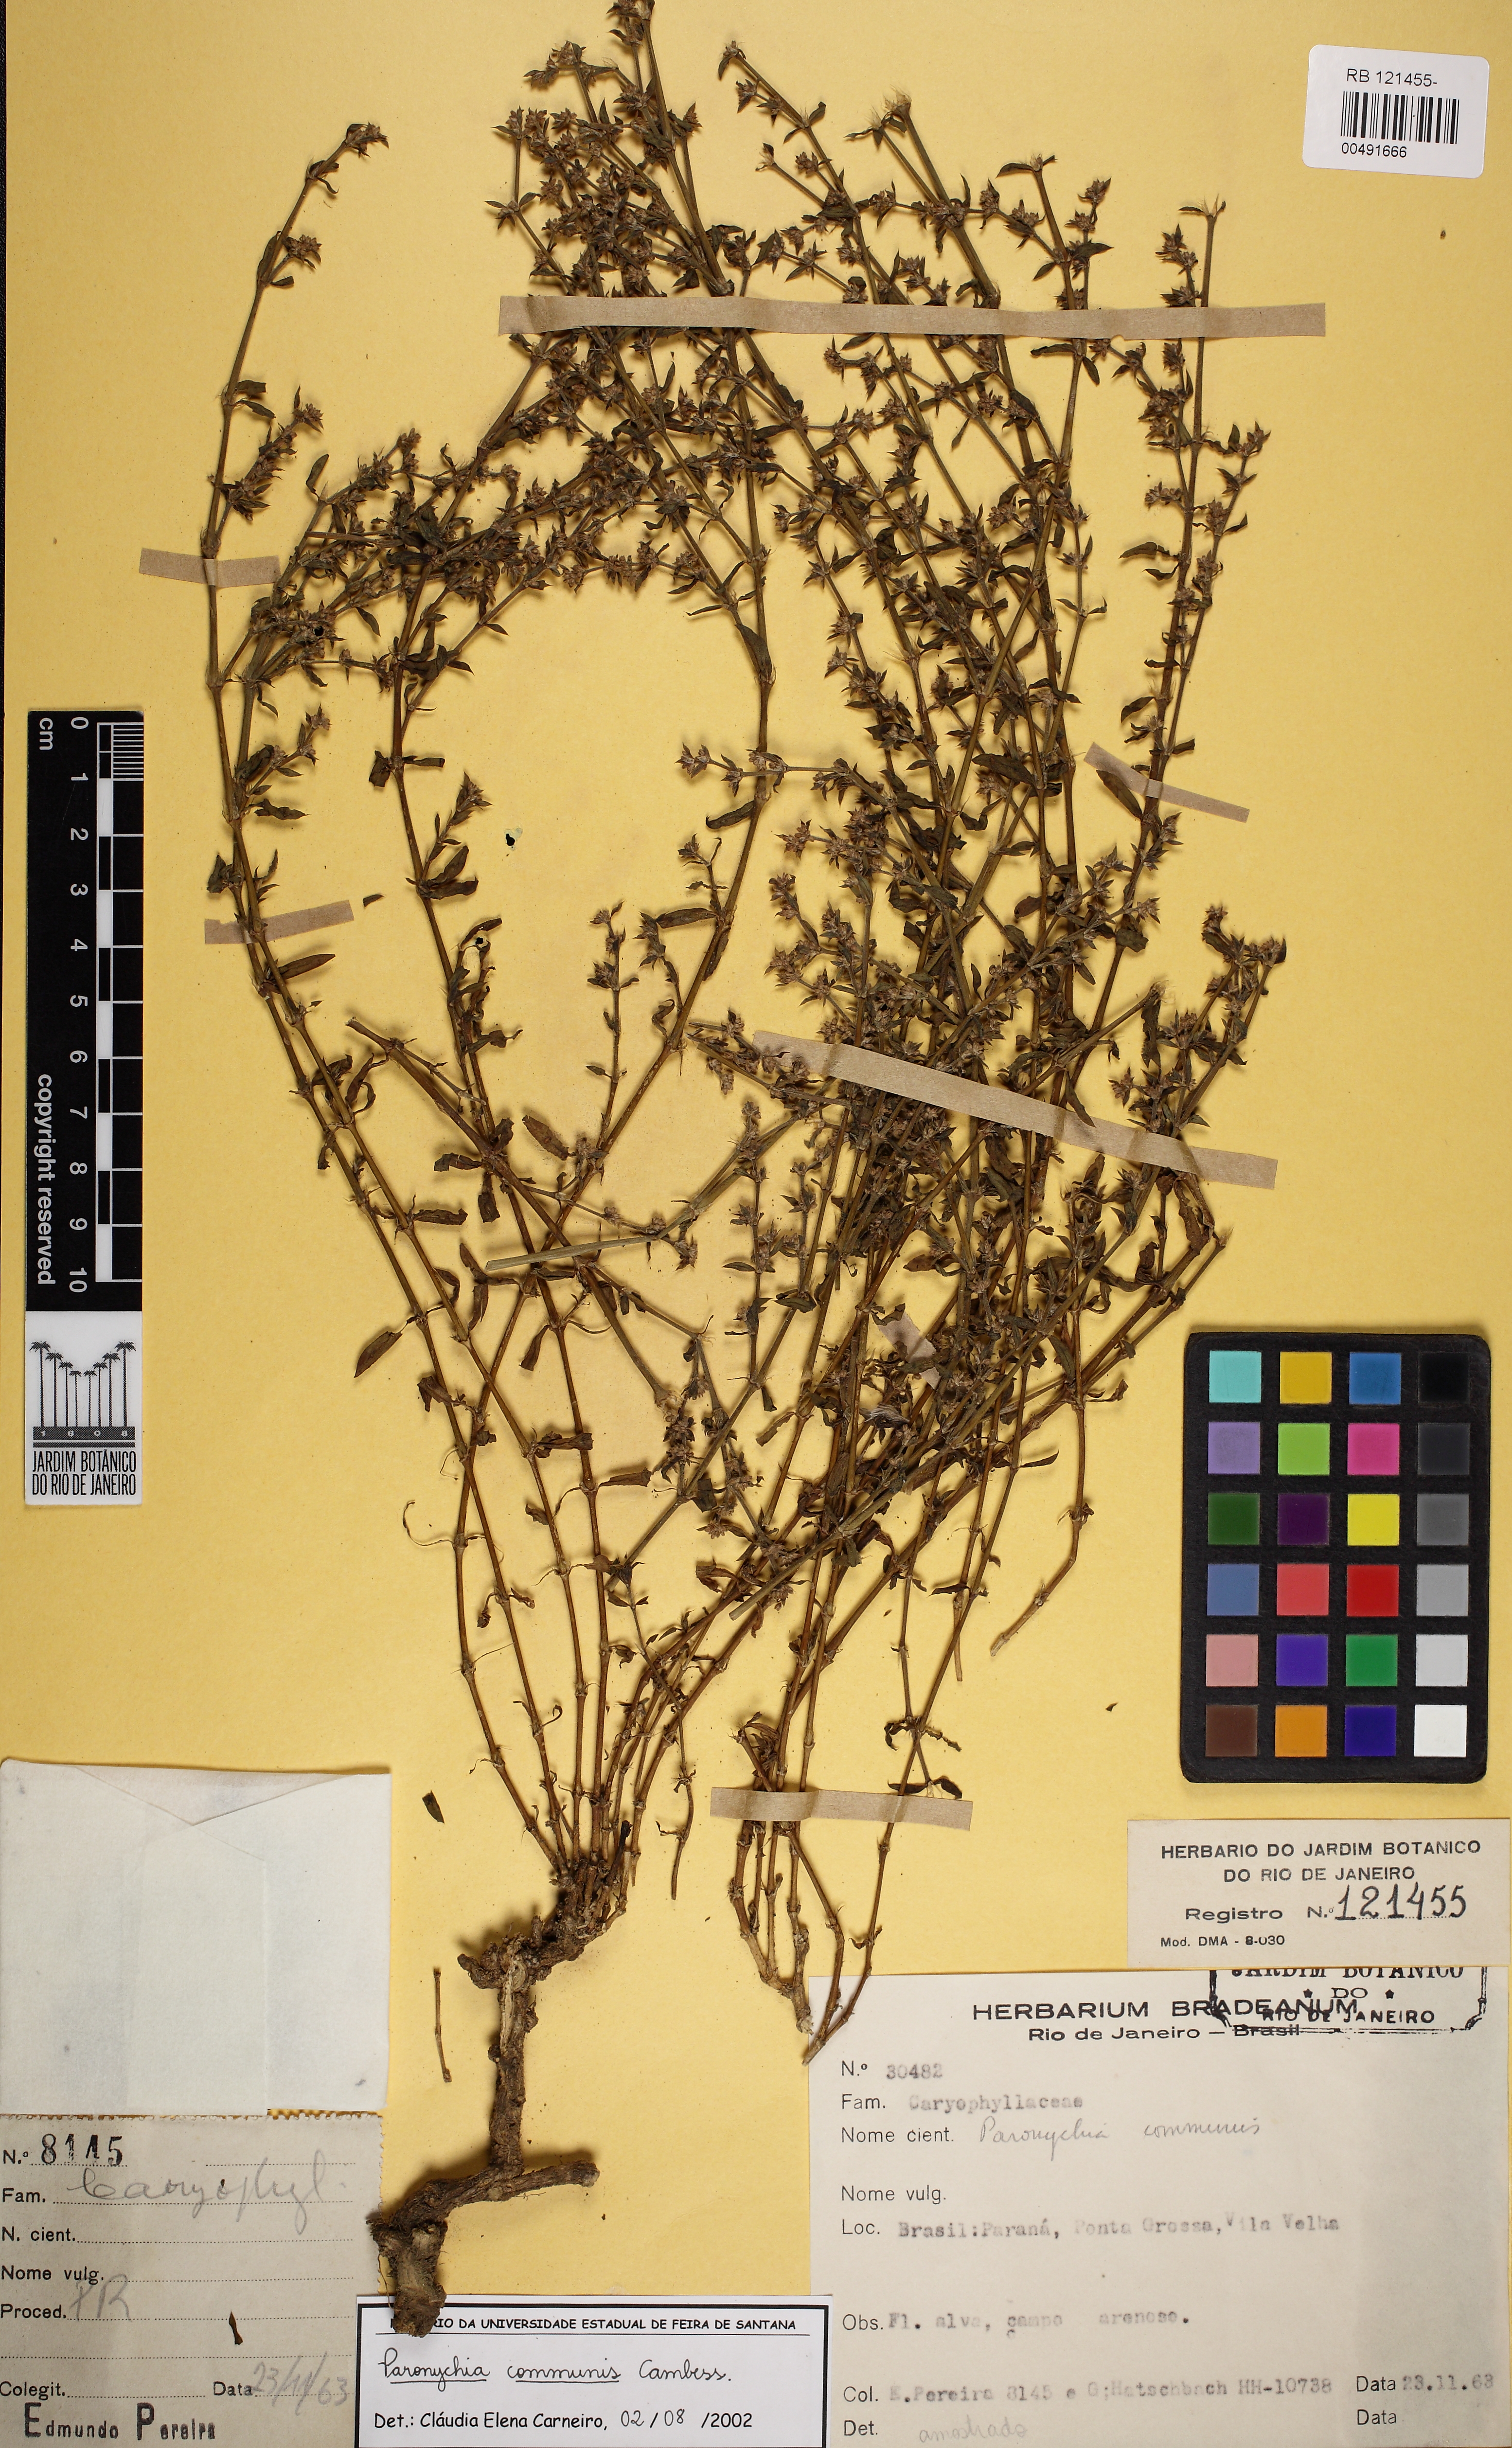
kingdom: Plantae
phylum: Tracheophyta
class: Magnoliopsida
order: Caryophyllales
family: Caryophyllaceae
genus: Paronychia
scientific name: Paronychia communis
